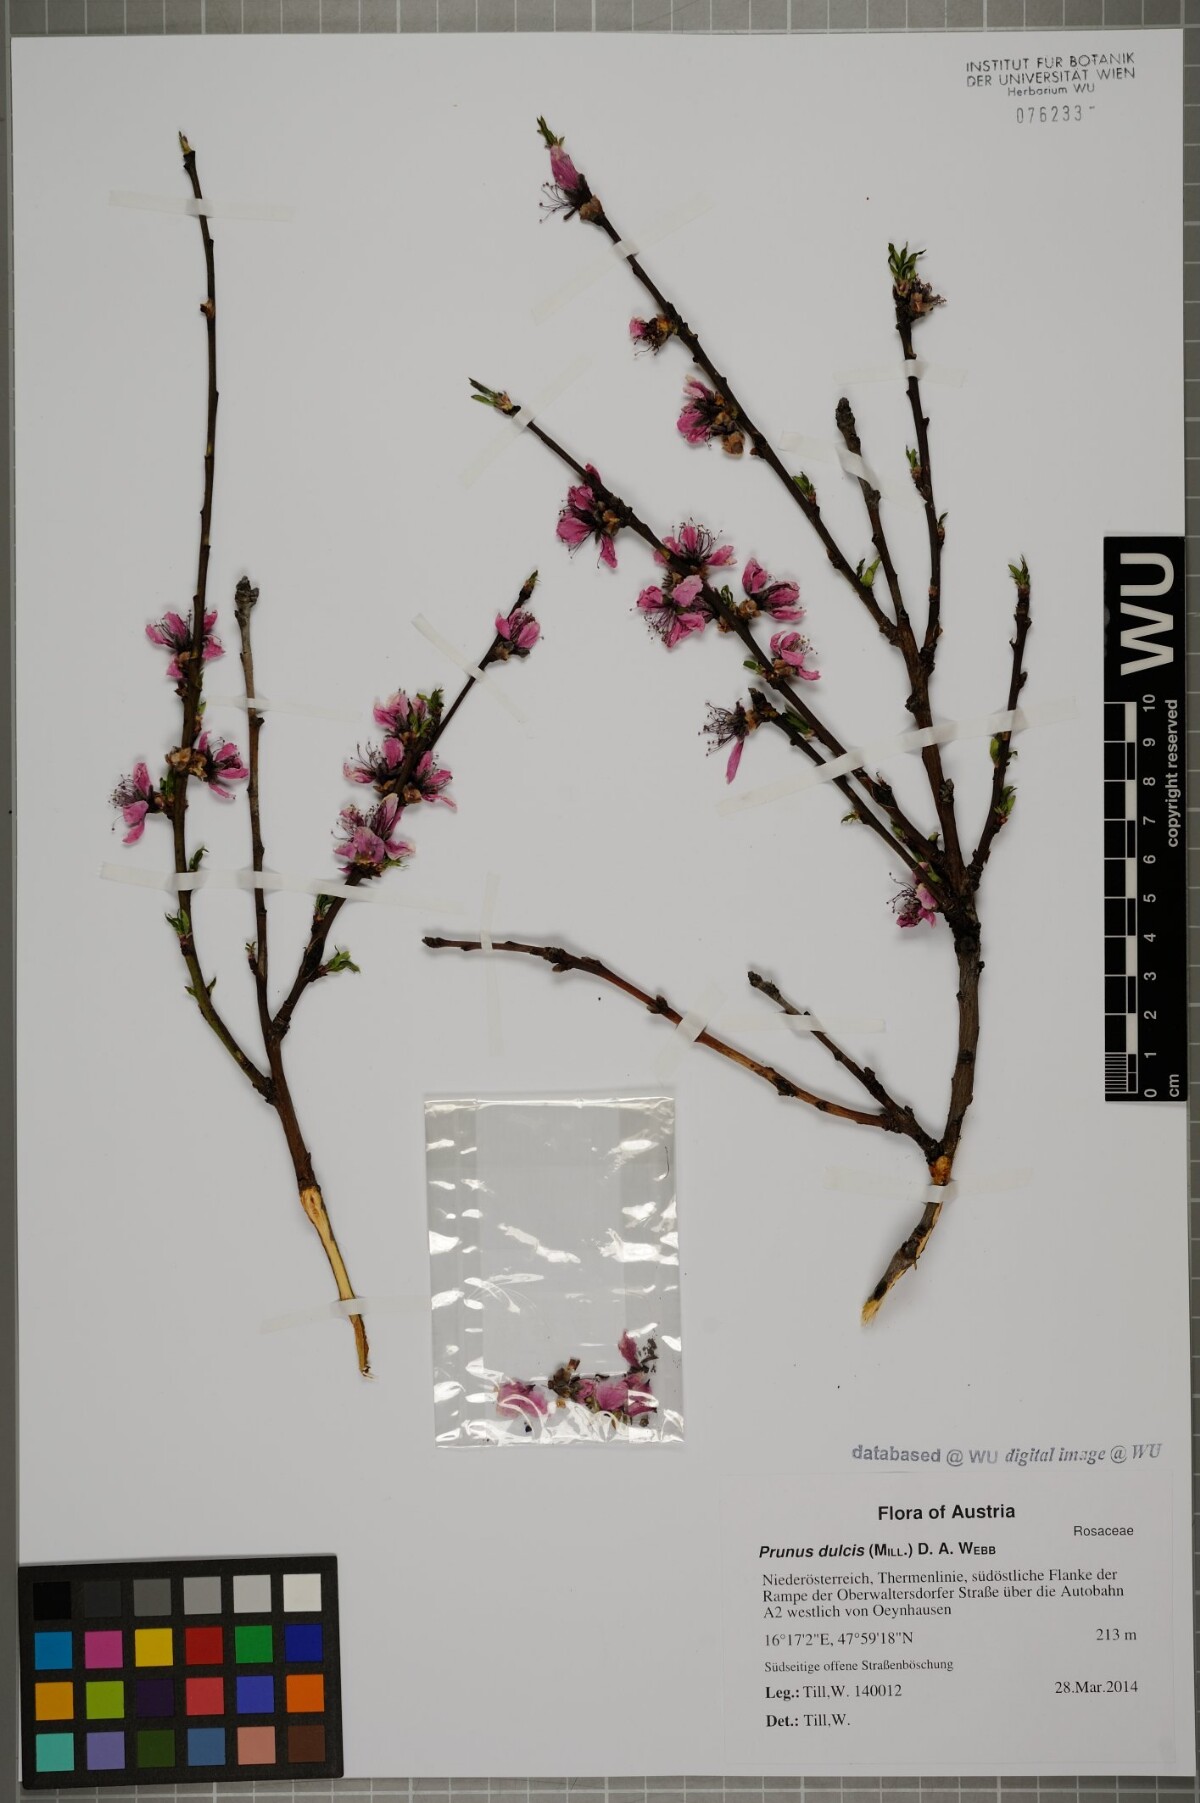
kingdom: Plantae
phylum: Tracheophyta
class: Magnoliopsida
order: Rosales
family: Rosaceae
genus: Prunus
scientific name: Prunus amygdalus
